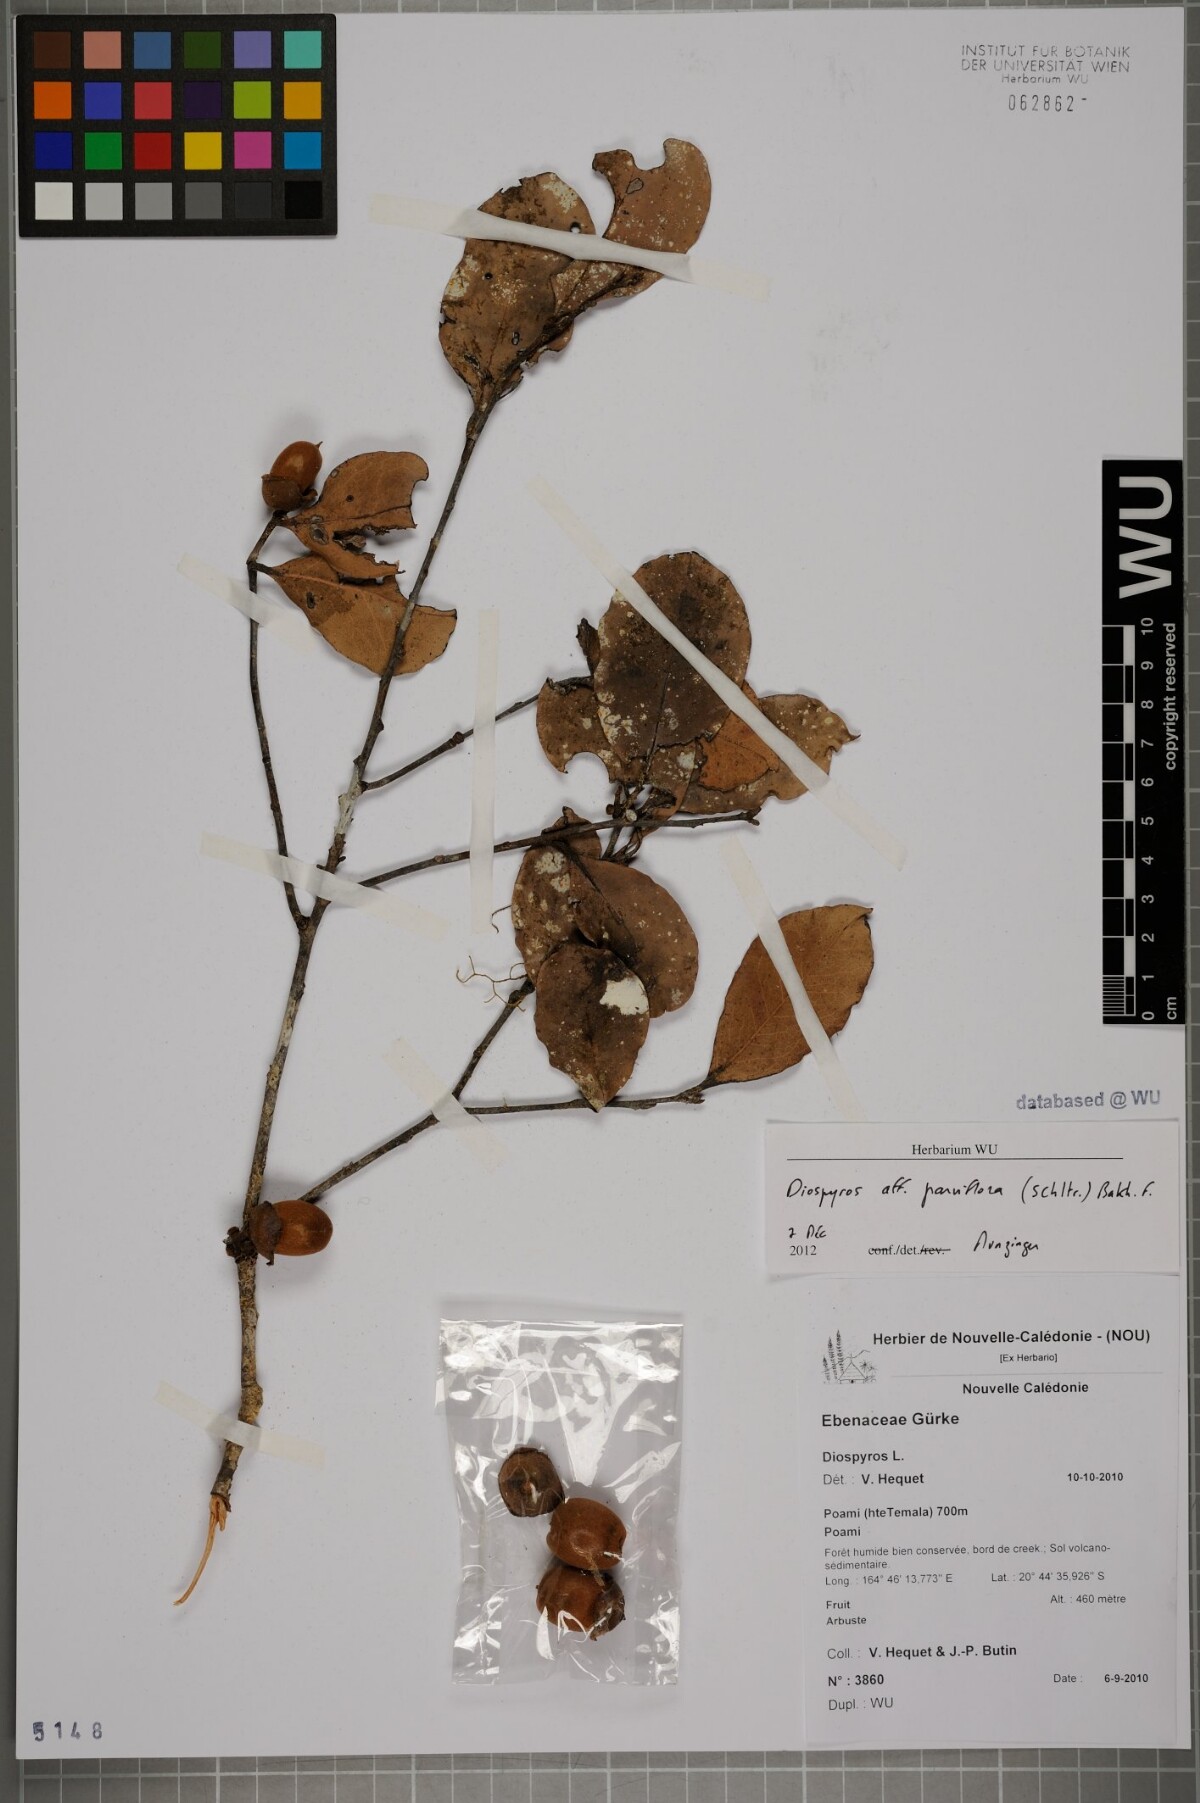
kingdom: Plantae
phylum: Tracheophyta
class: Magnoliopsida
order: Ericales
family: Ebenaceae
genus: Diospyros
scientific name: Diospyros parviflora
